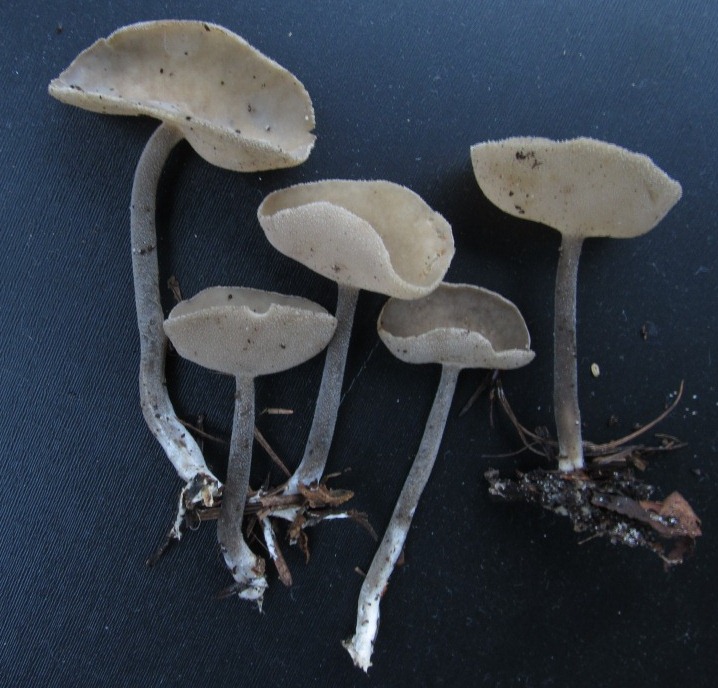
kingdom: Fungi
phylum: Ascomycota
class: Pezizomycetes
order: Pezizales
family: Helvellaceae
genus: Helvella
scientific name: Helvella macropus
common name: højstokket foldhat
